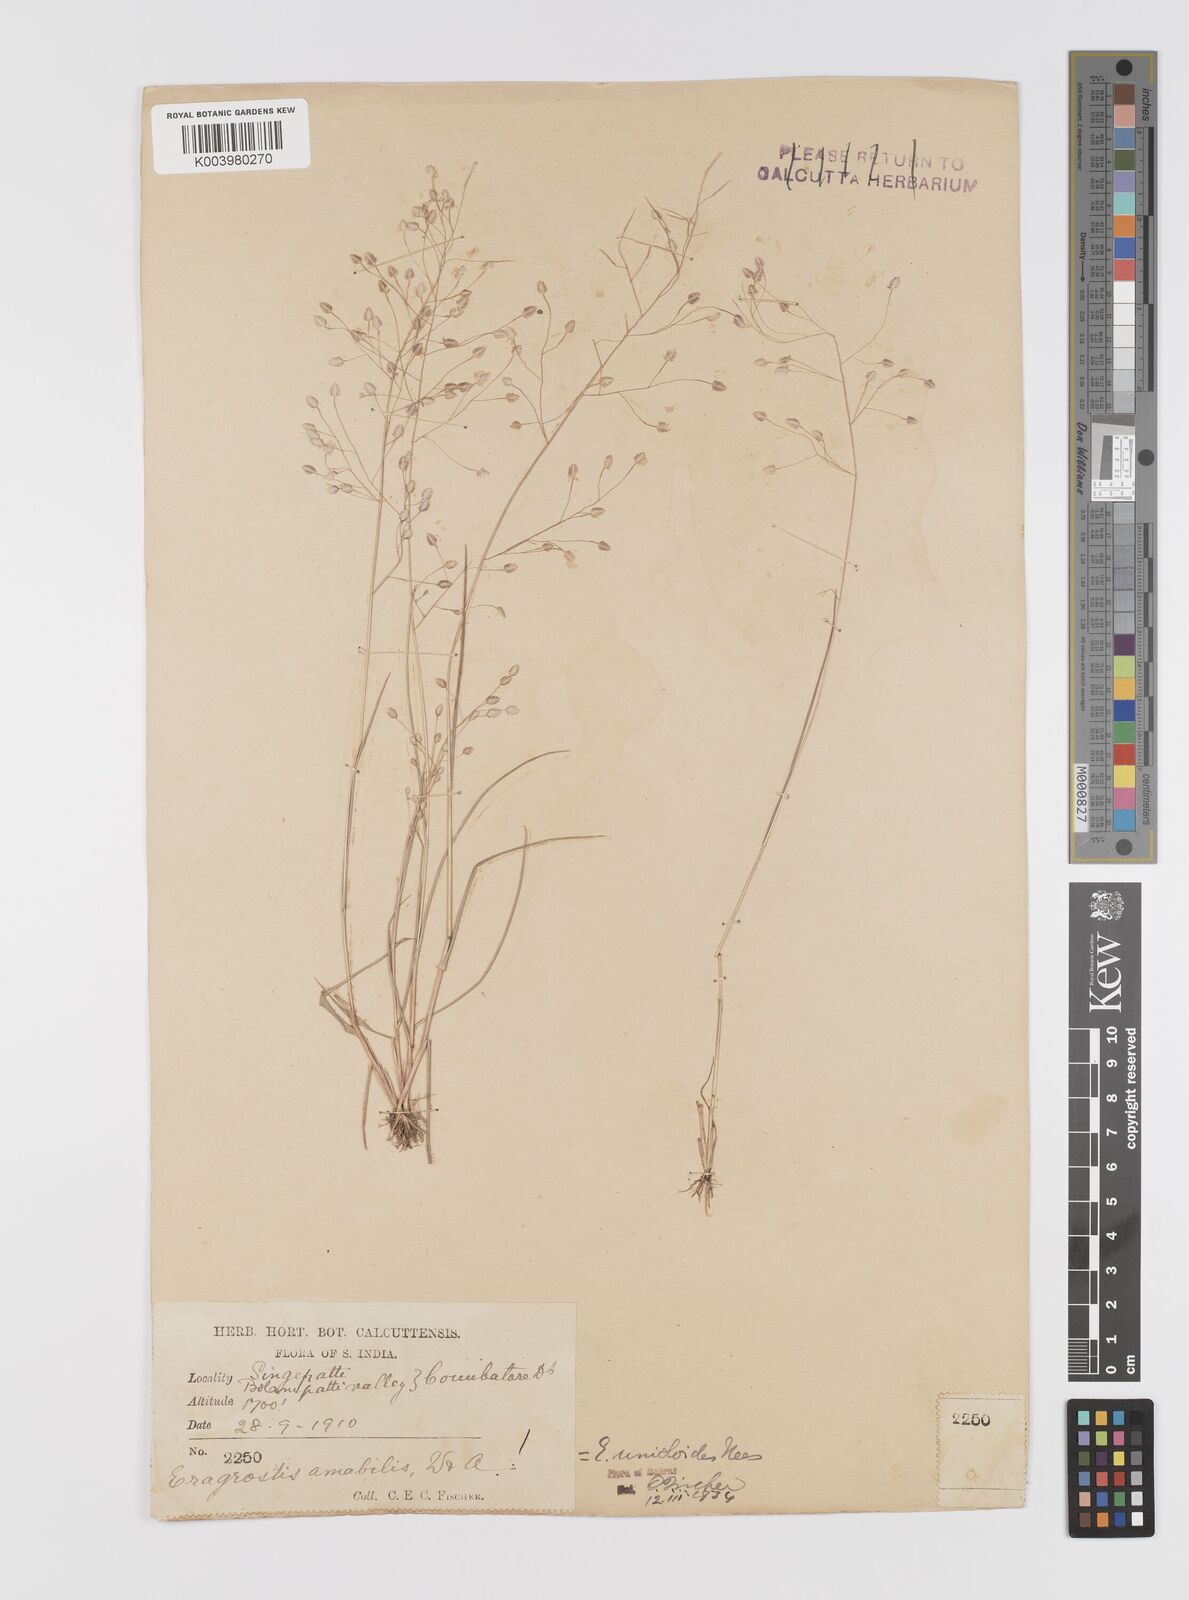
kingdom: Plantae
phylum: Tracheophyta
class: Liliopsida
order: Poales
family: Poaceae
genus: Eragrostis
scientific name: Eragrostis unioloides
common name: Chinese lovegrass
